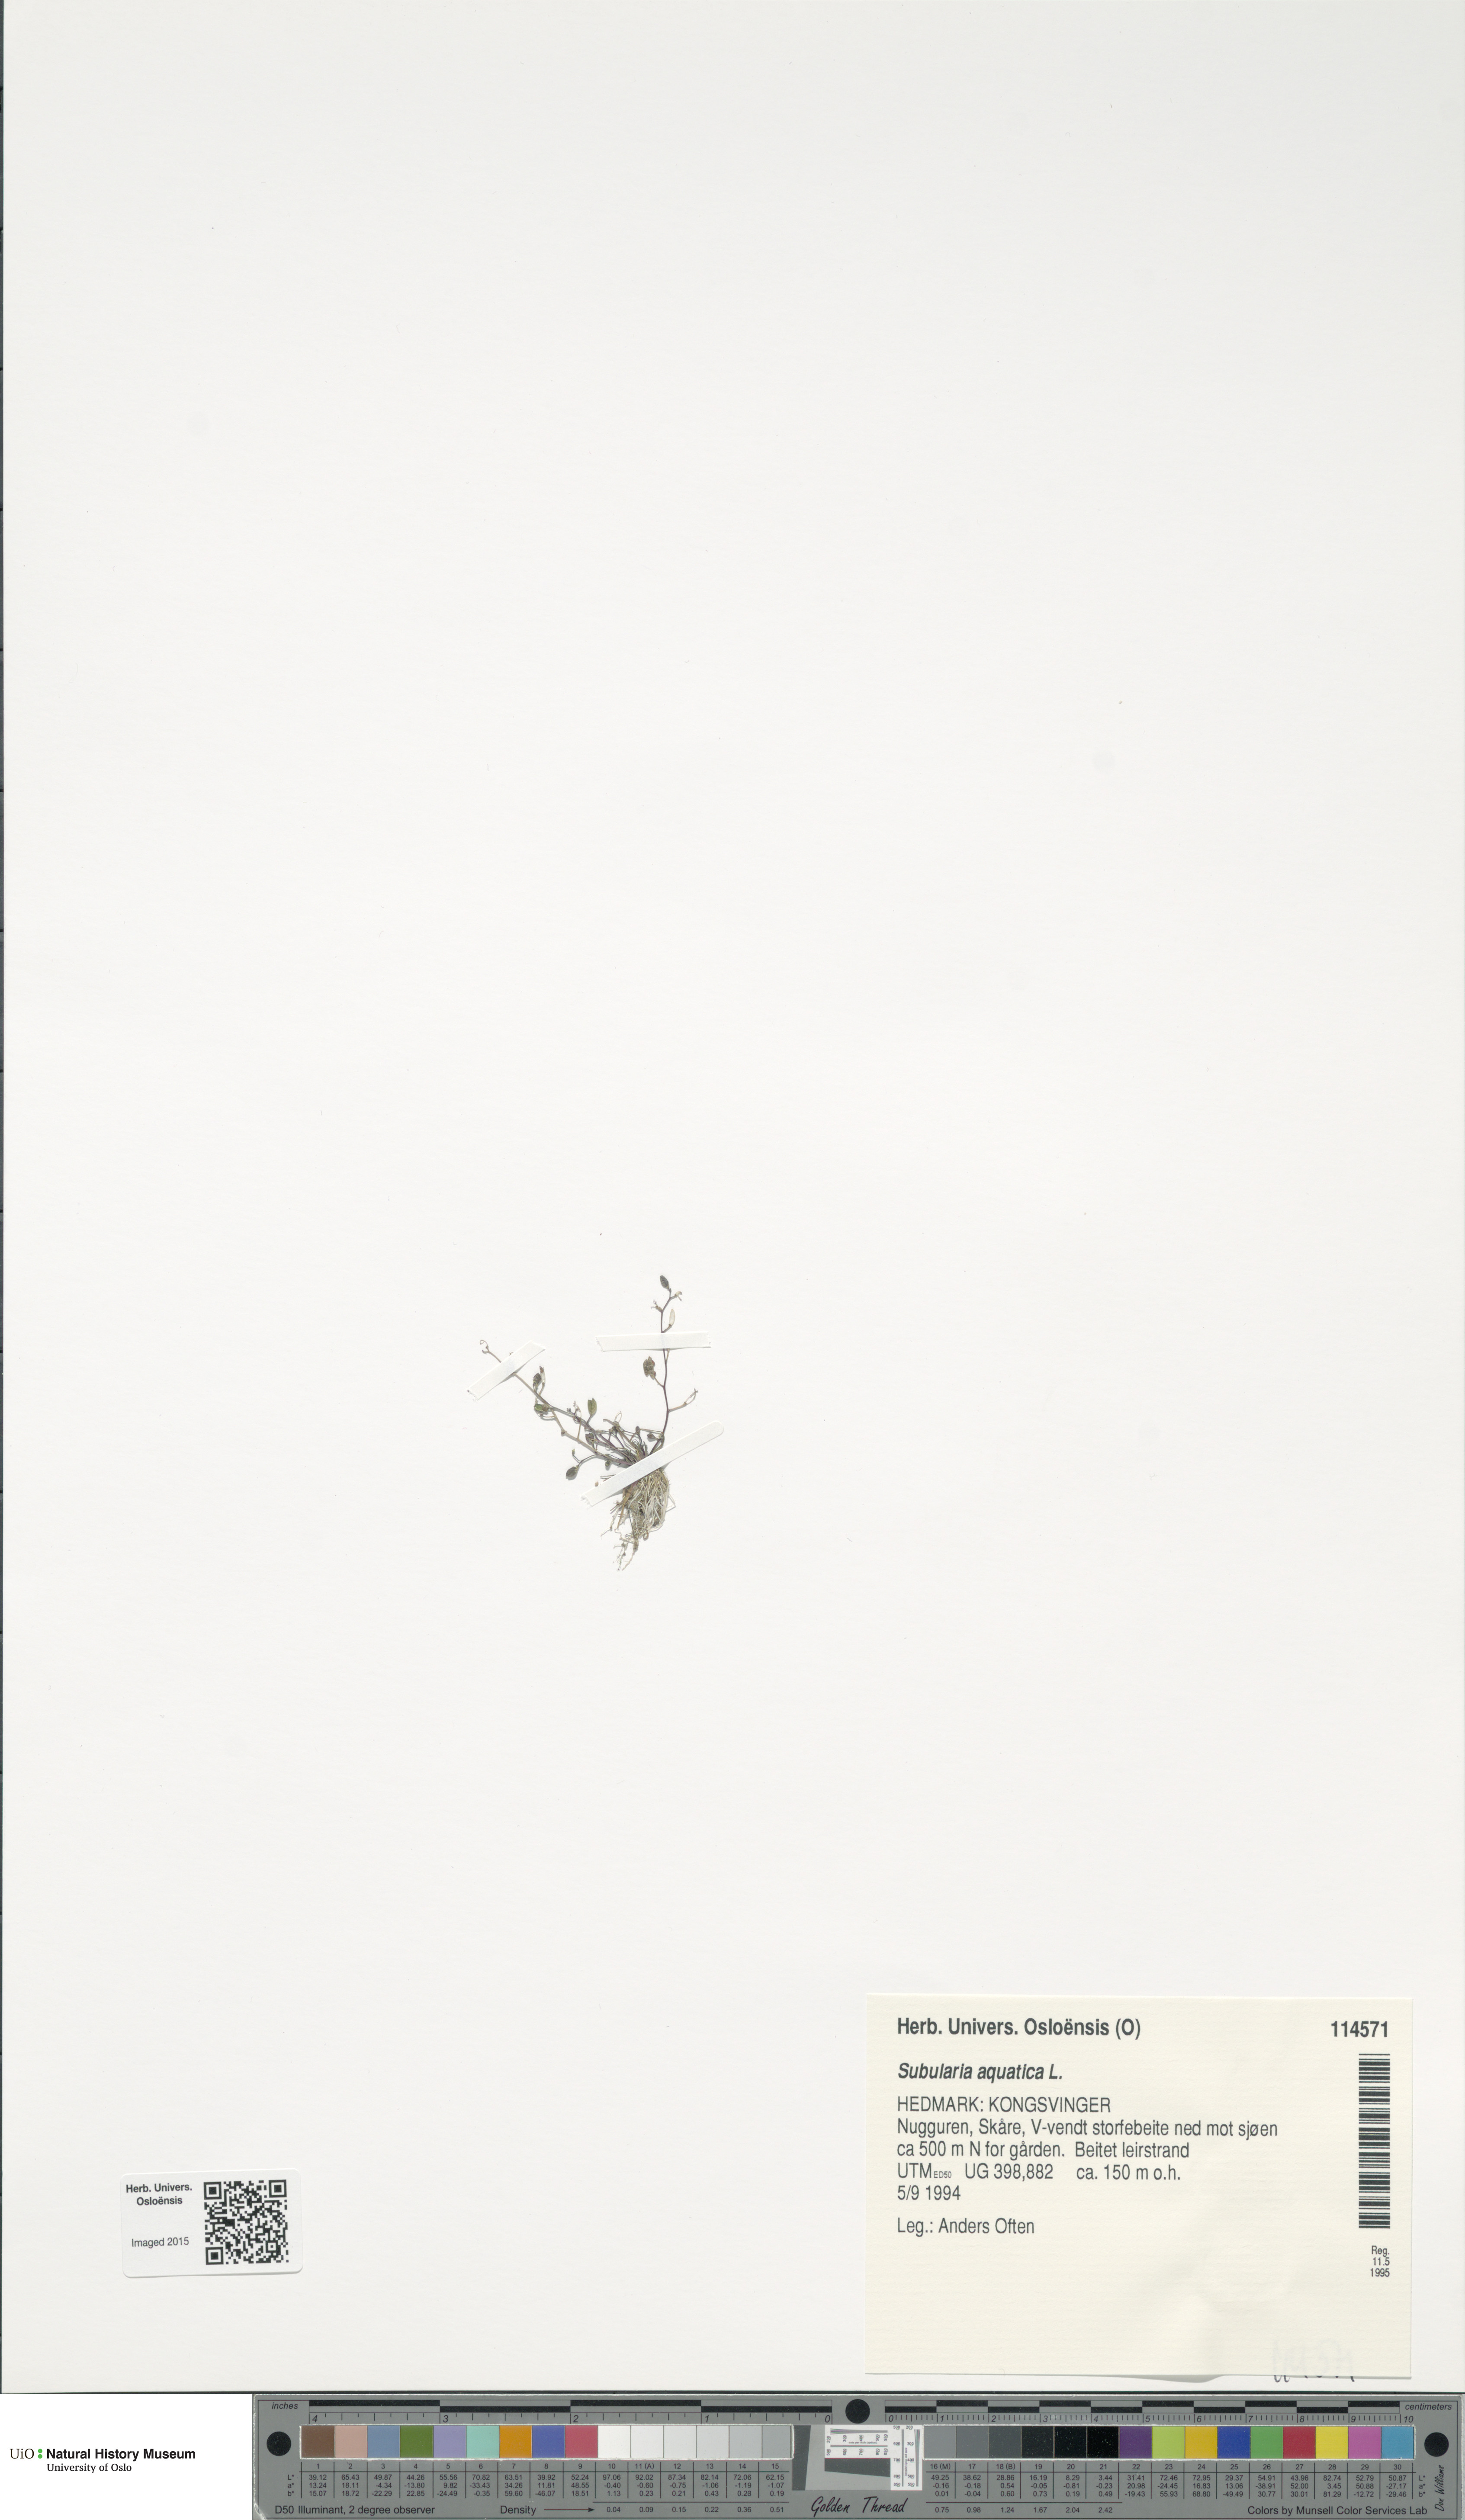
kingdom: Plantae
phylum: Tracheophyta
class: Magnoliopsida
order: Brassicales
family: Brassicaceae
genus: Subularia
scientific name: Subularia aquatica
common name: Awlwort
